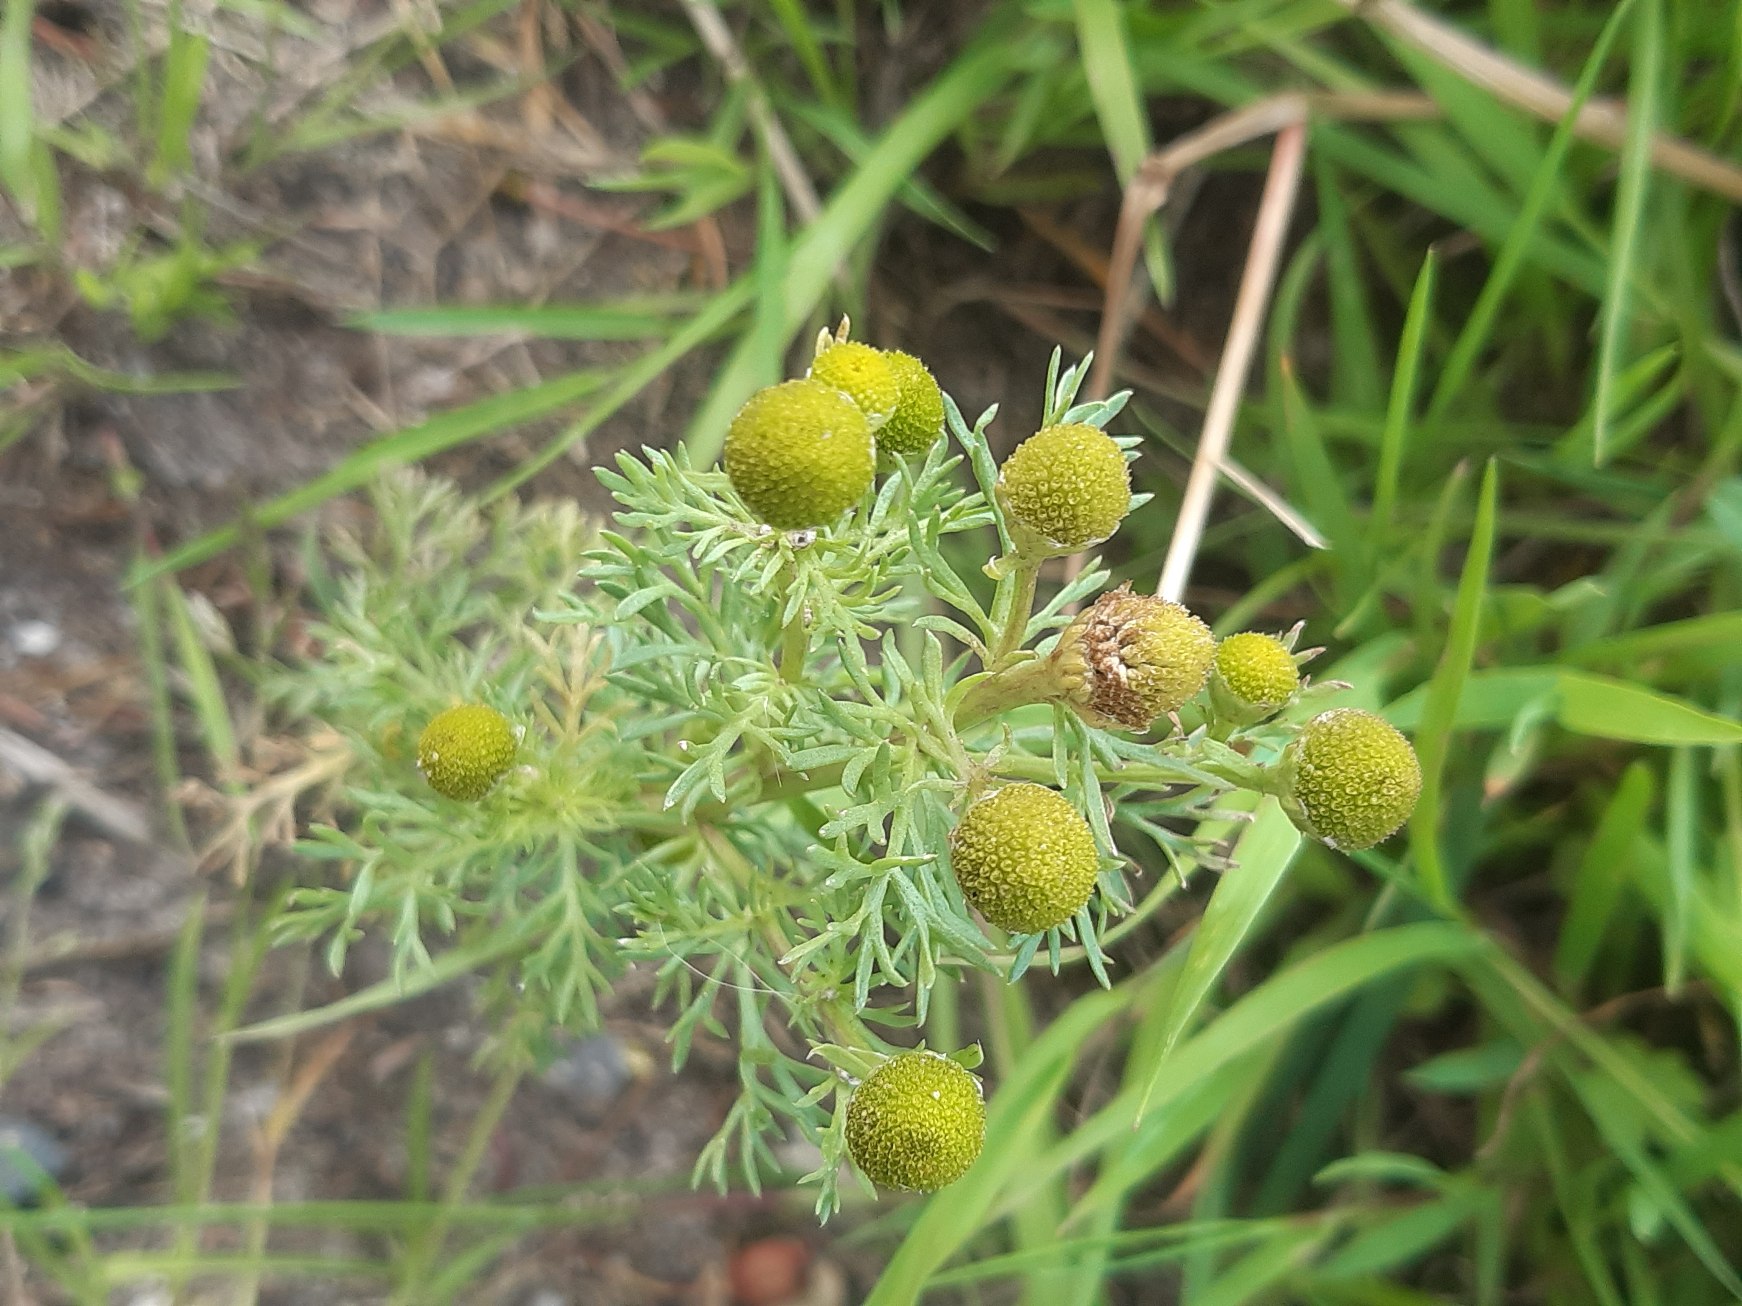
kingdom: Plantae
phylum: Tracheophyta
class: Magnoliopsida
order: Asterales
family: Asteraceae
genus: Matricaria
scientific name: Matricaria discoidea
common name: Skive-kamille
